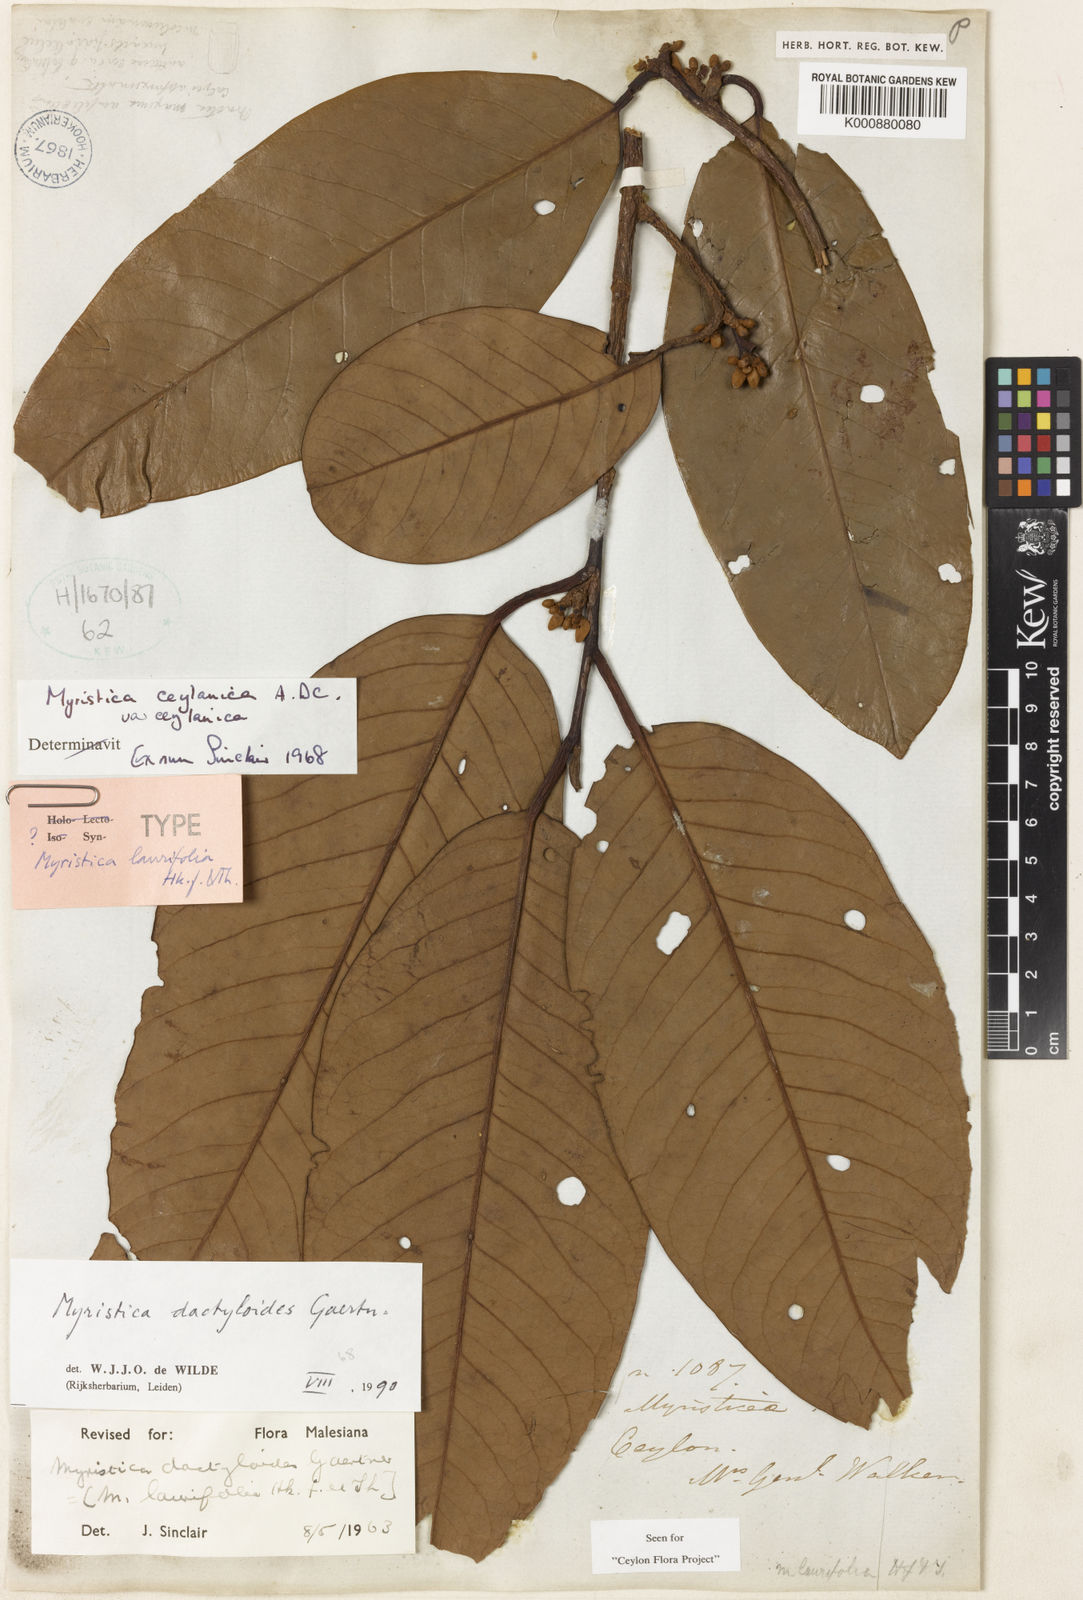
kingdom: Plantae
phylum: Tracheophyta
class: Magnoliopsida
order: Magnoliales
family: Myristicaceae
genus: Myristica
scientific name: Myristica magnifica
